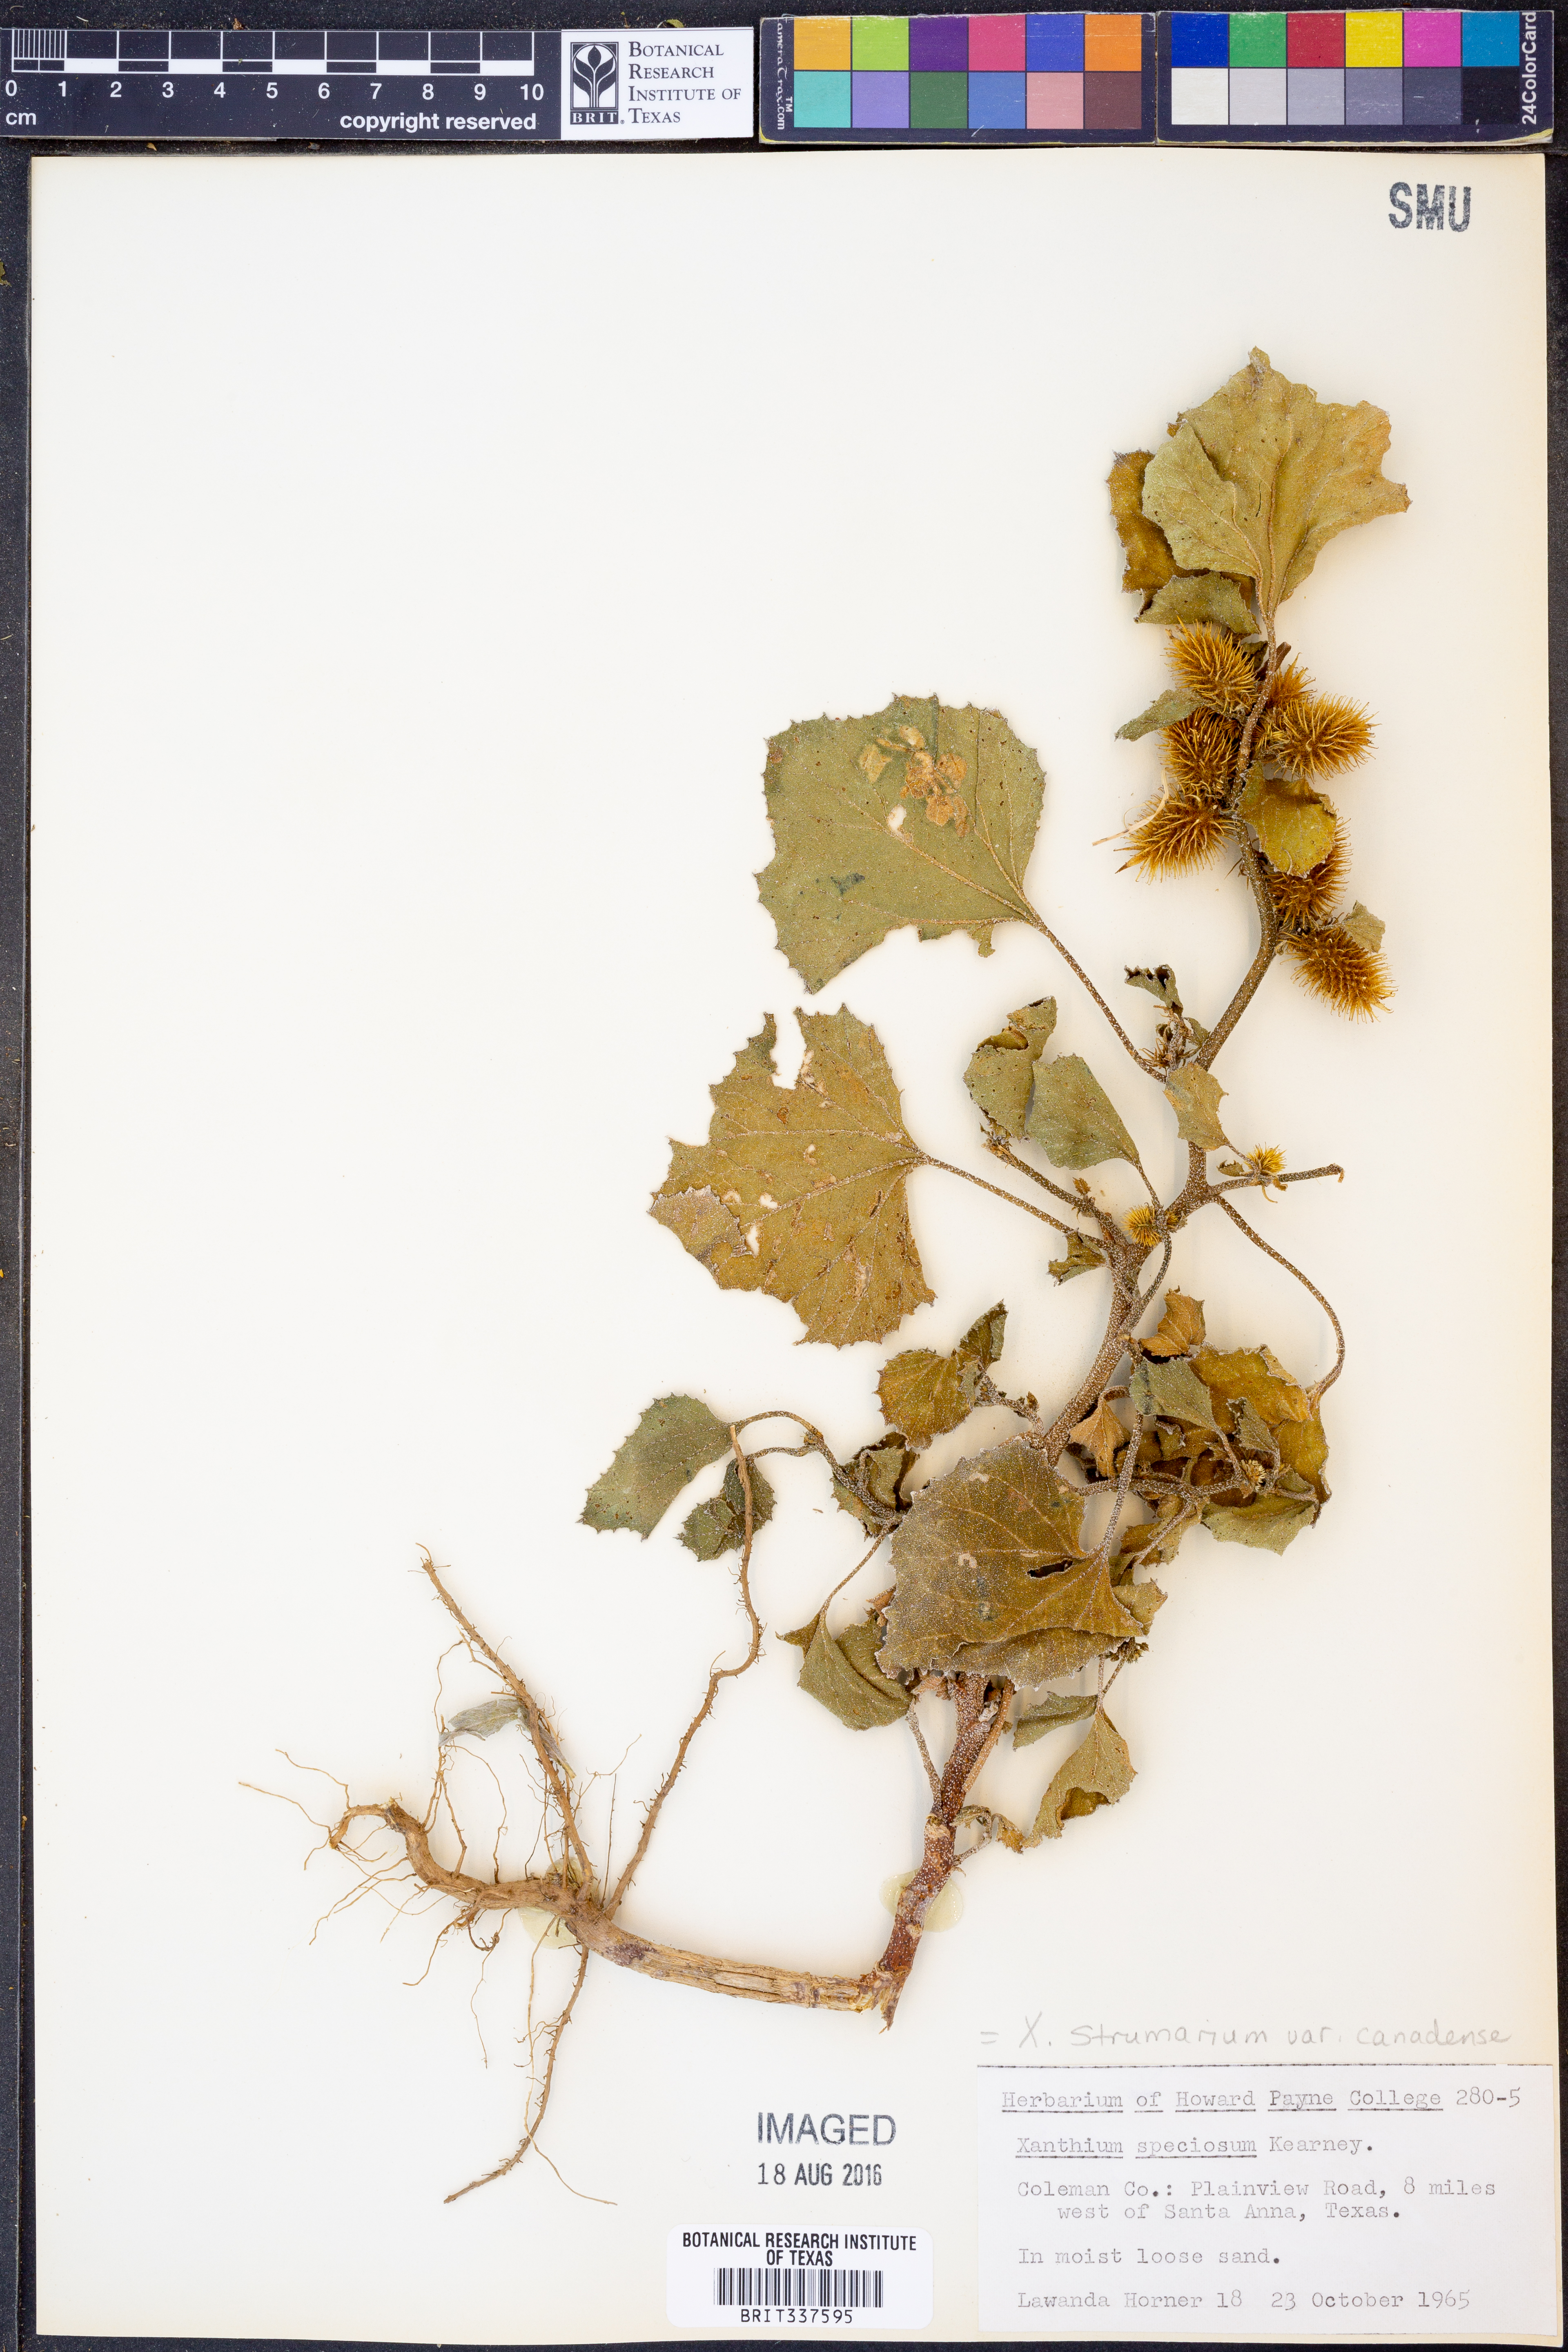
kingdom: Plantae
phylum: Tracheophyta
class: Magnoliopsida
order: Asterales
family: Asteraceae
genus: Xanthium
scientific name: Xanthium orientale
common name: Californian burr
